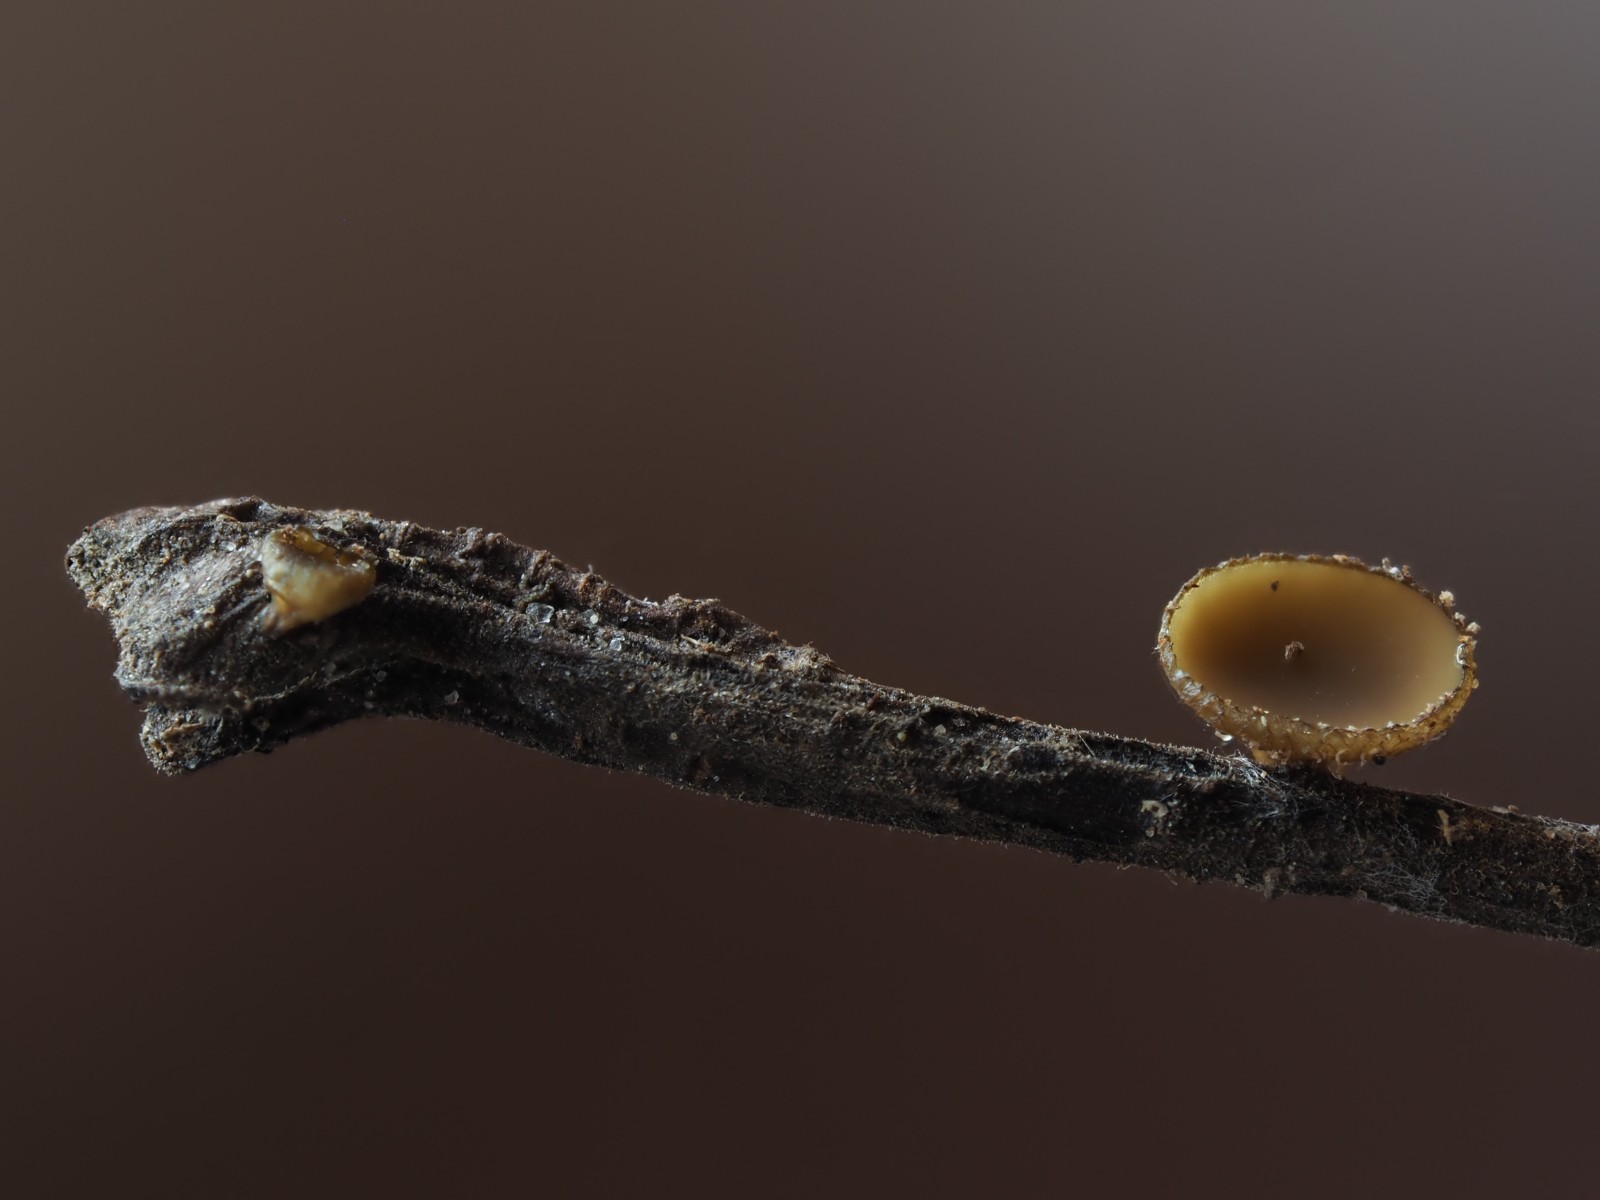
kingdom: Fungi
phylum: Ascomycota
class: Leotiomycetes
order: Helotiales
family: Rutstroemiaceae
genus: Rutstroemia
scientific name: Rutstroemia
